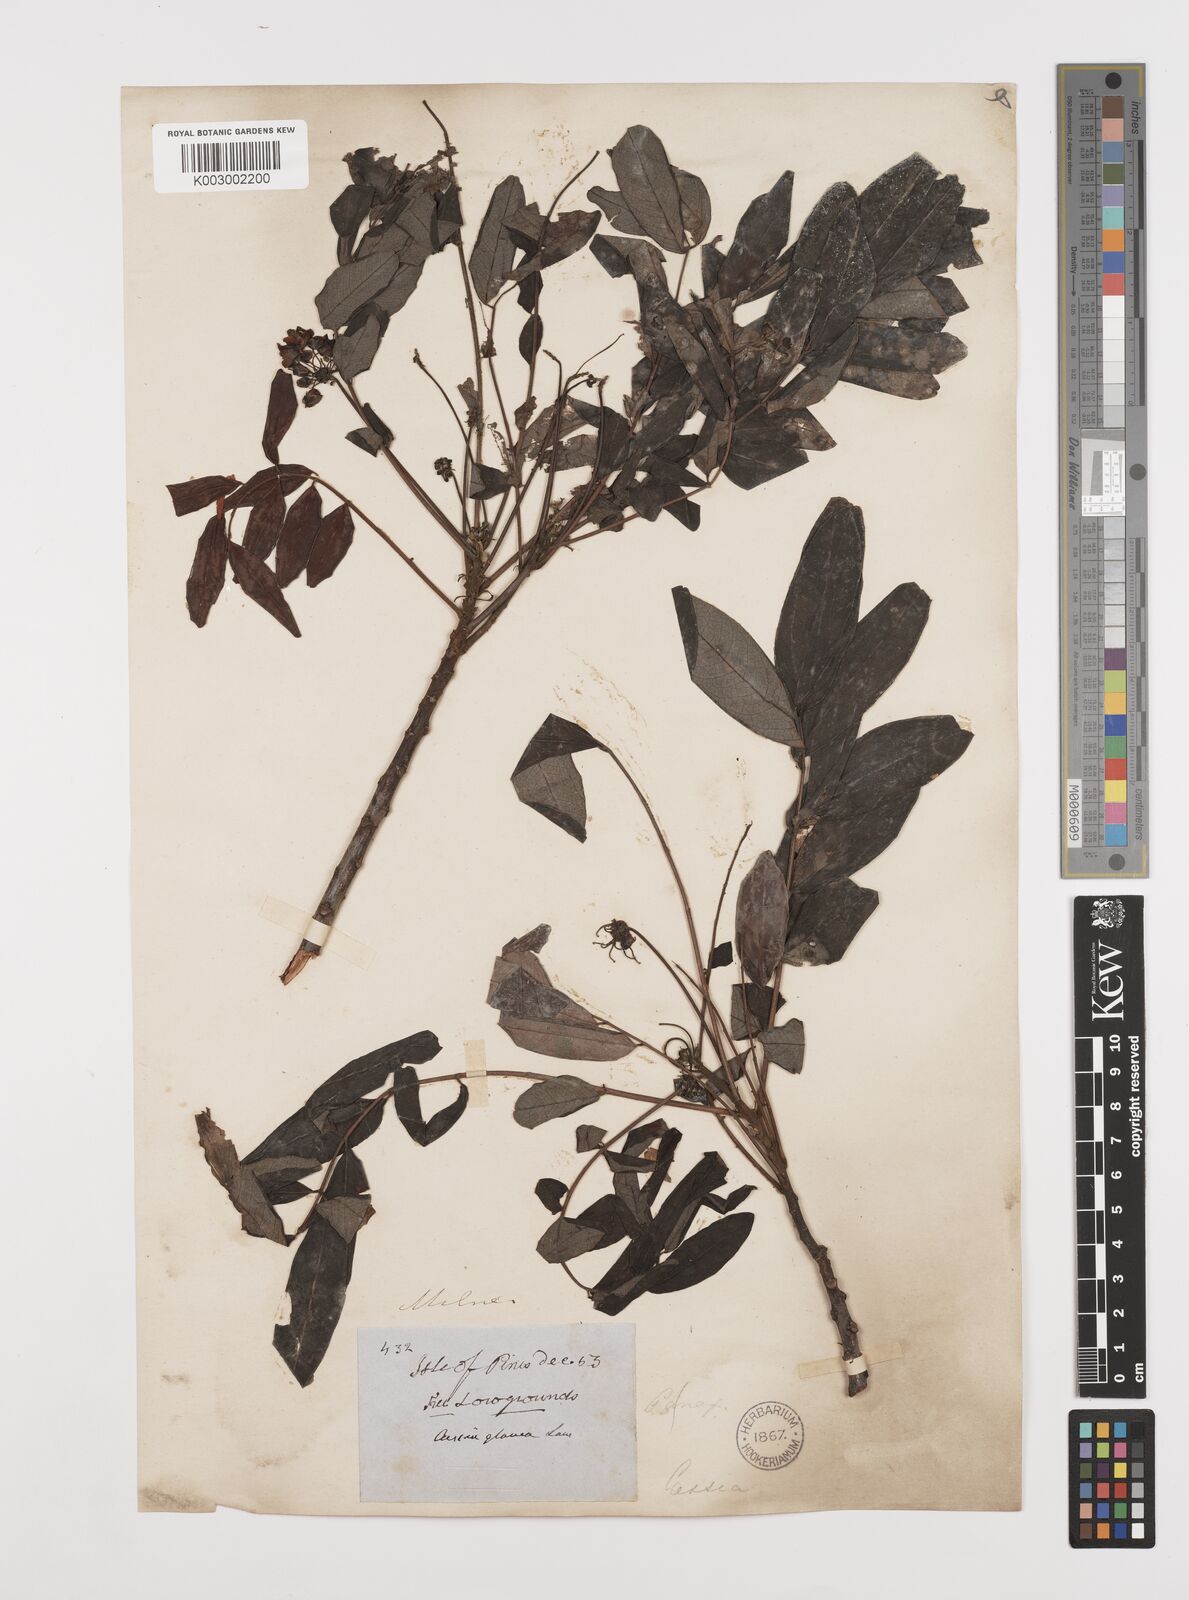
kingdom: Plantae
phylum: Tracheophyta
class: Magnoliopsida
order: Fabales
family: Fabaceae
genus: Senna
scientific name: Senna sulfurea
